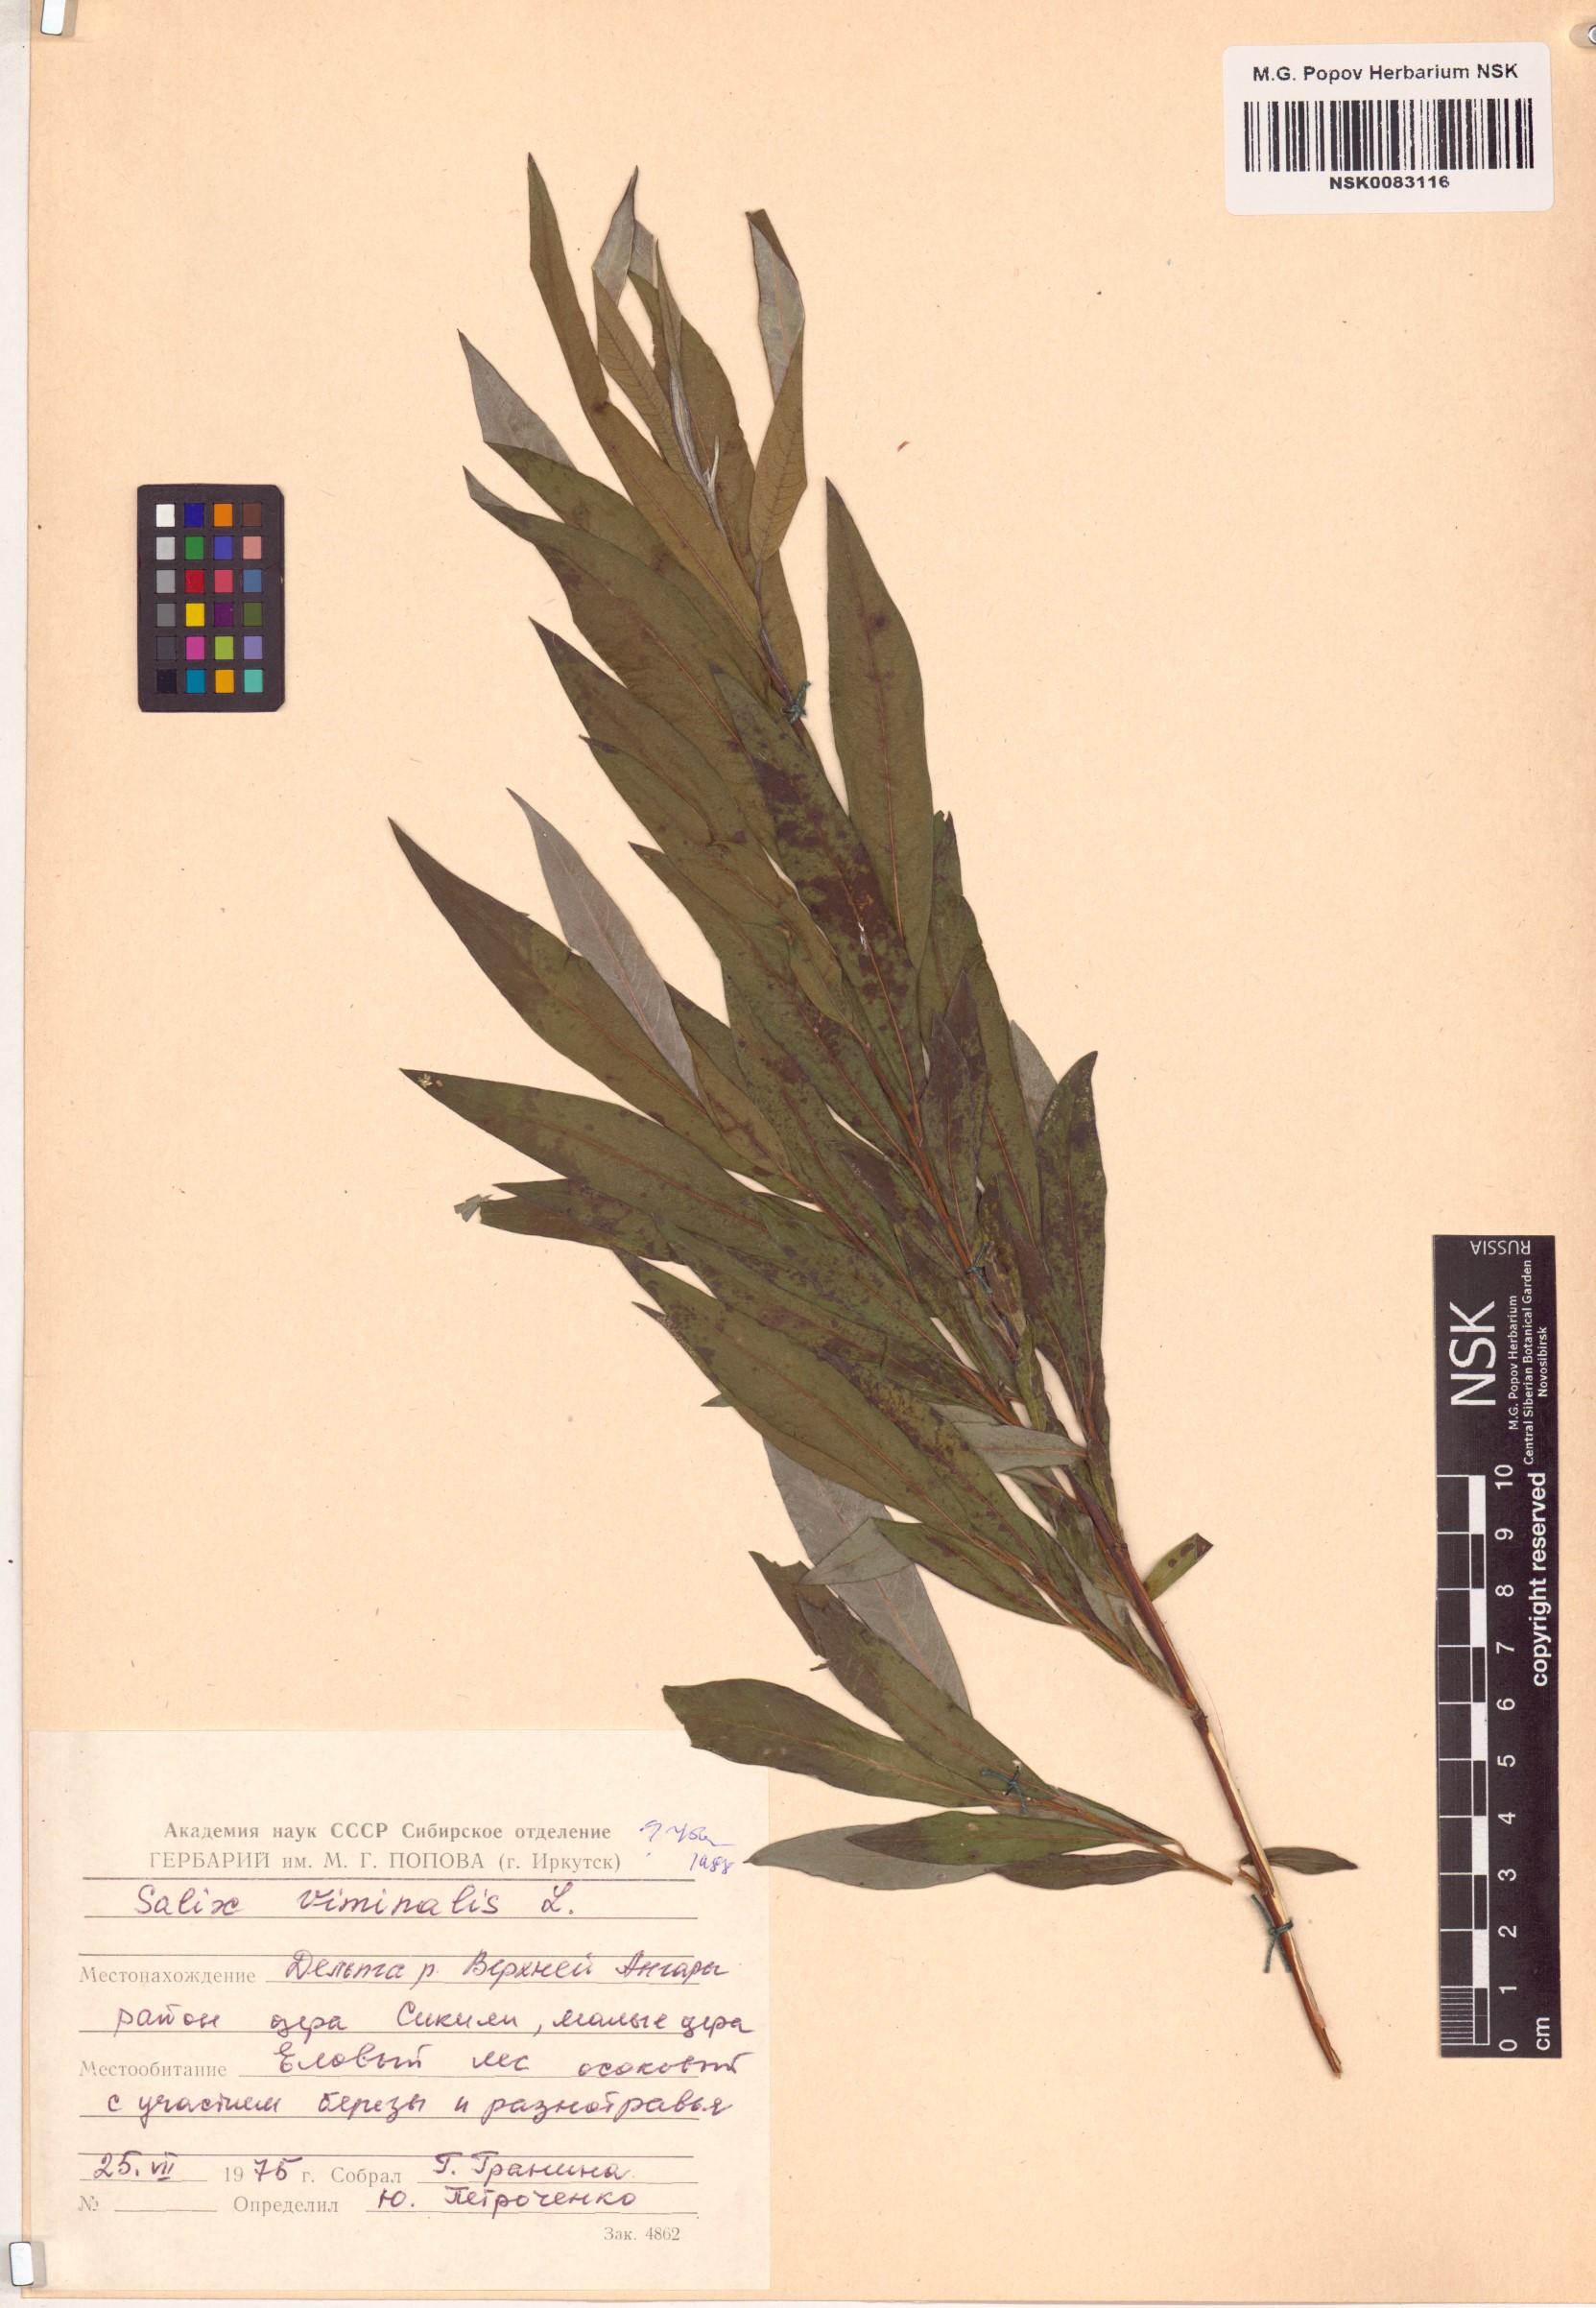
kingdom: Plantae
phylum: Tracheophyta
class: Magnoliopsida
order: Malpighiales
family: Salicaceae
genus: Salix
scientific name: Salix viminalis
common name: Osier
